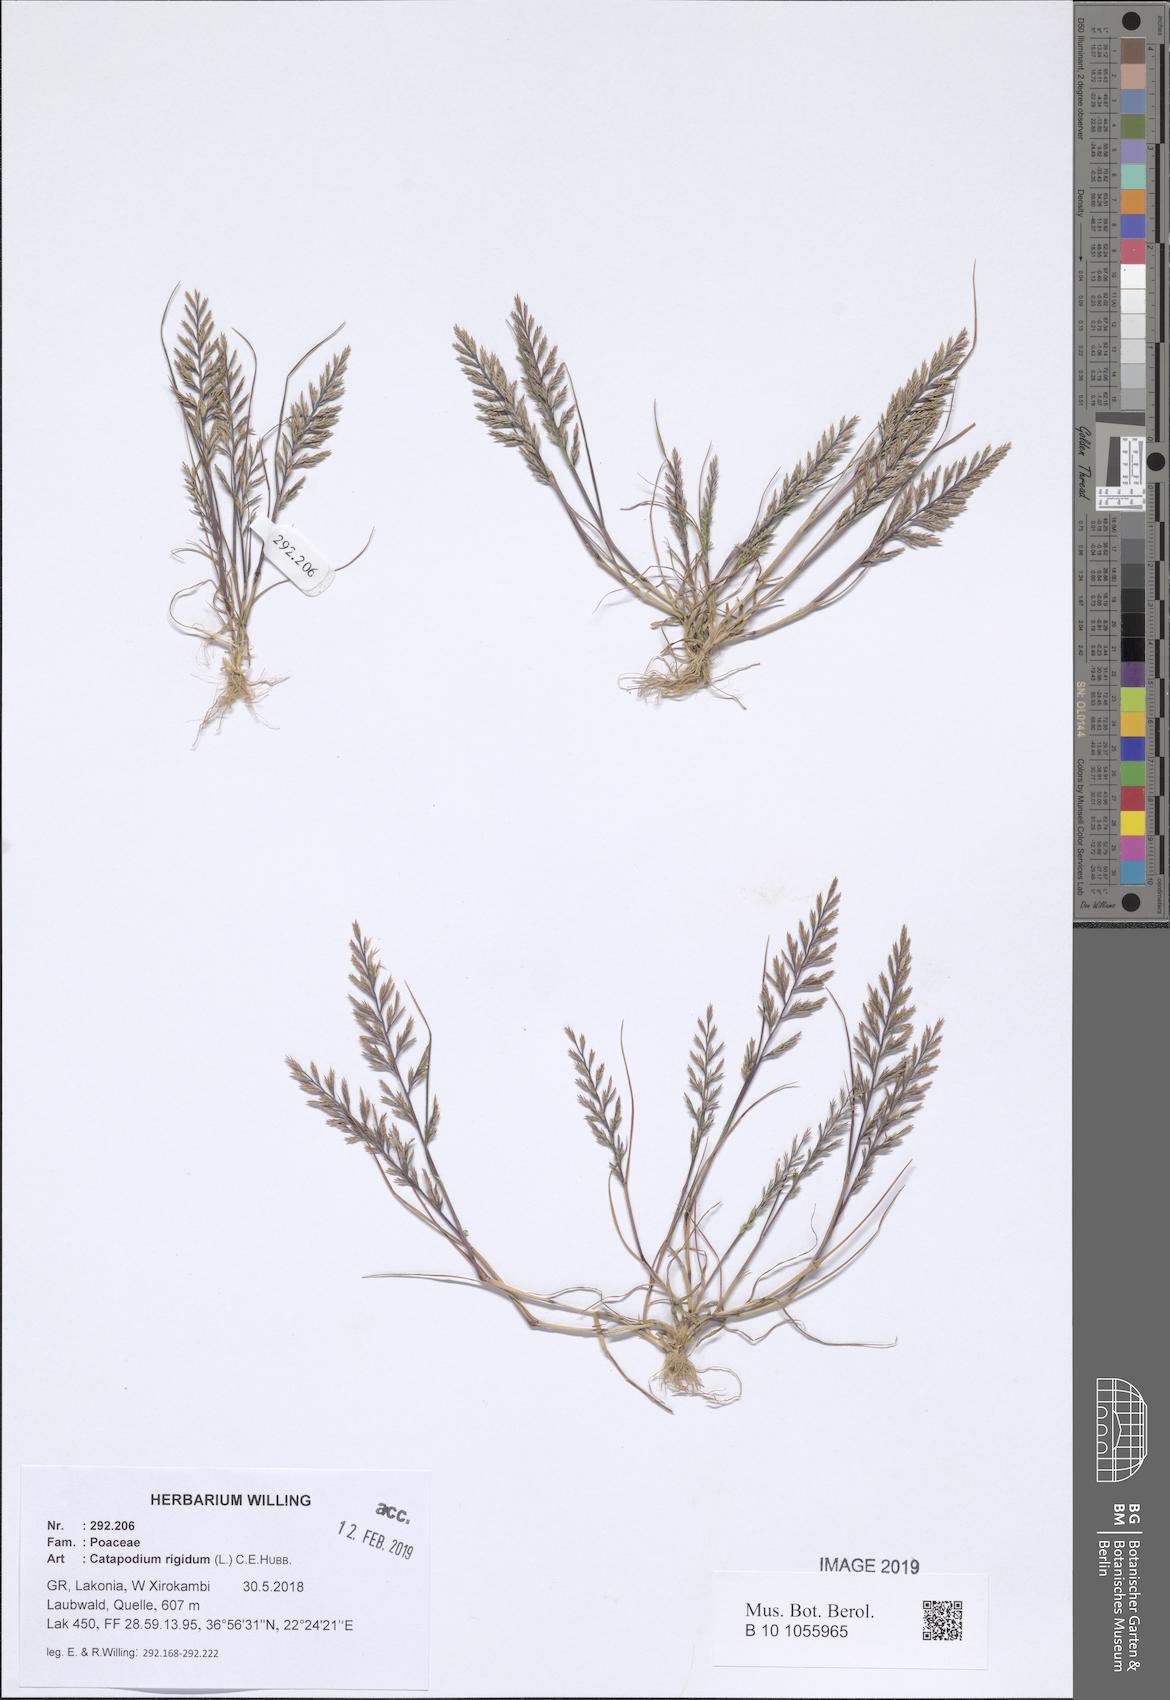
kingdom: Plantae
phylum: Tracheophyta
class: Liliopsida
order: Poales
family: Poaceae
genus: Catapodium
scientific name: Catapodium rigidum
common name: Fern-grass
